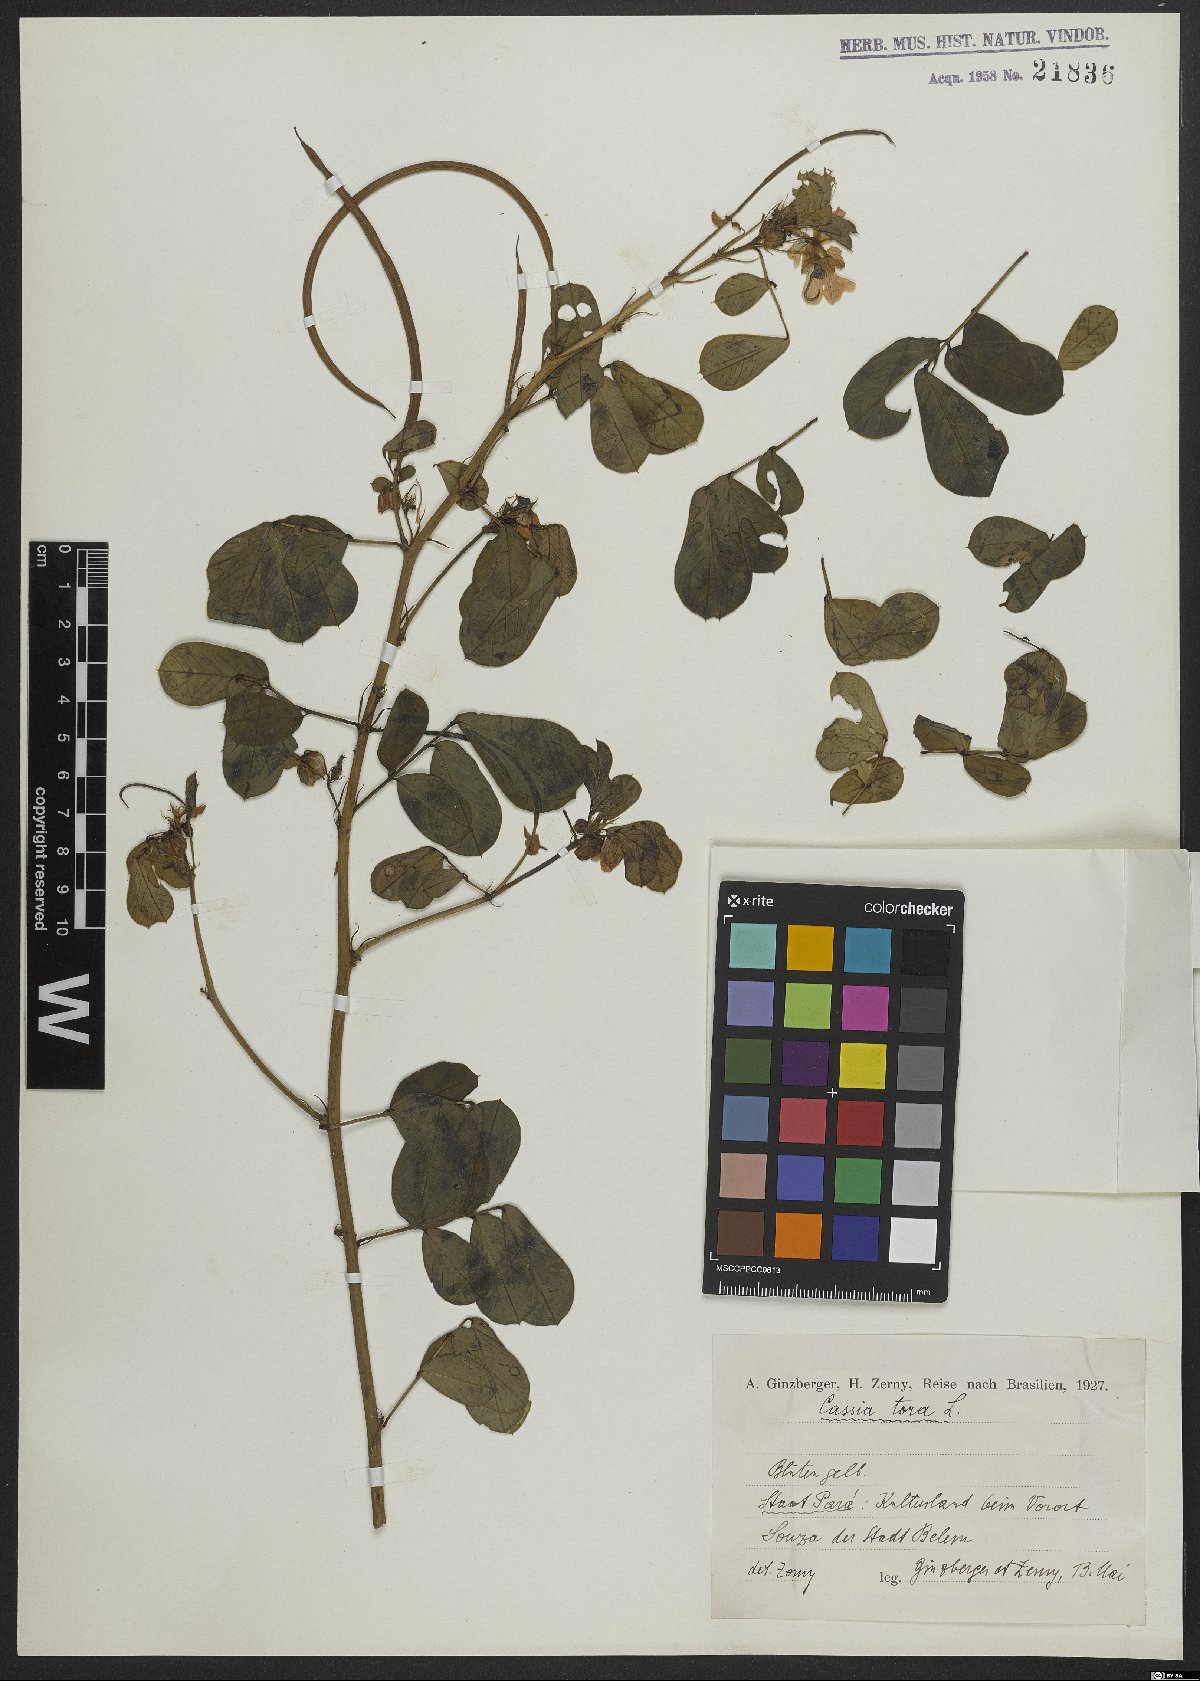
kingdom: Plantae
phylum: Tracheophyta
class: Magnoliopsida
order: Fabales
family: Fabaceae
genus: Senna
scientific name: Senna tora
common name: Sickle senna
